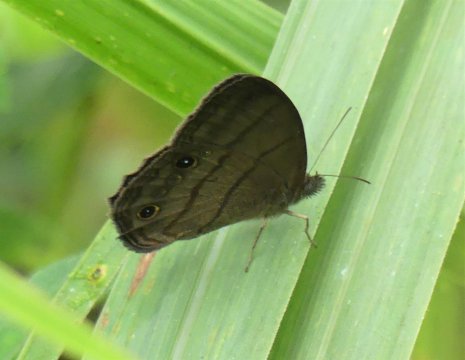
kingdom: Animalia
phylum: Arthropoda
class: Insecta
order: Lepidoptera
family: Nymphalidae
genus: Euptychia
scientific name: Euptychia alcinoe
